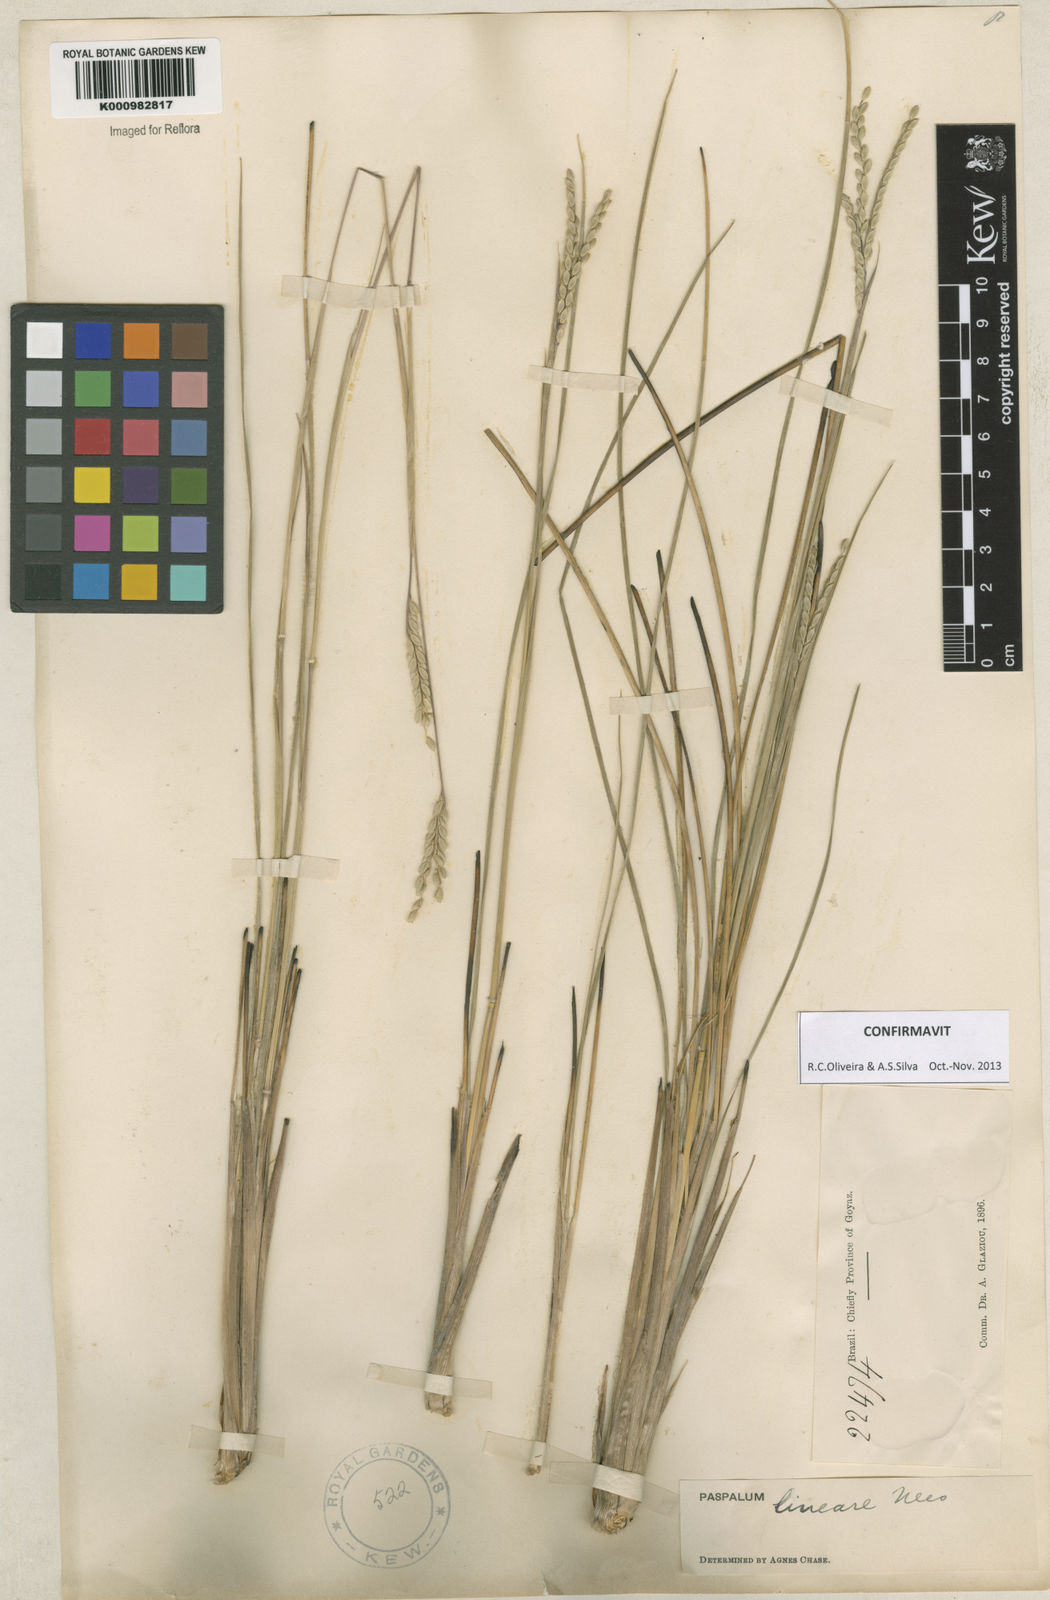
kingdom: Plantae
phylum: Tracheophyta
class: Liliopsida
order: Poales
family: Poaceae
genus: Paspalum
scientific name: Paspalum lineare
